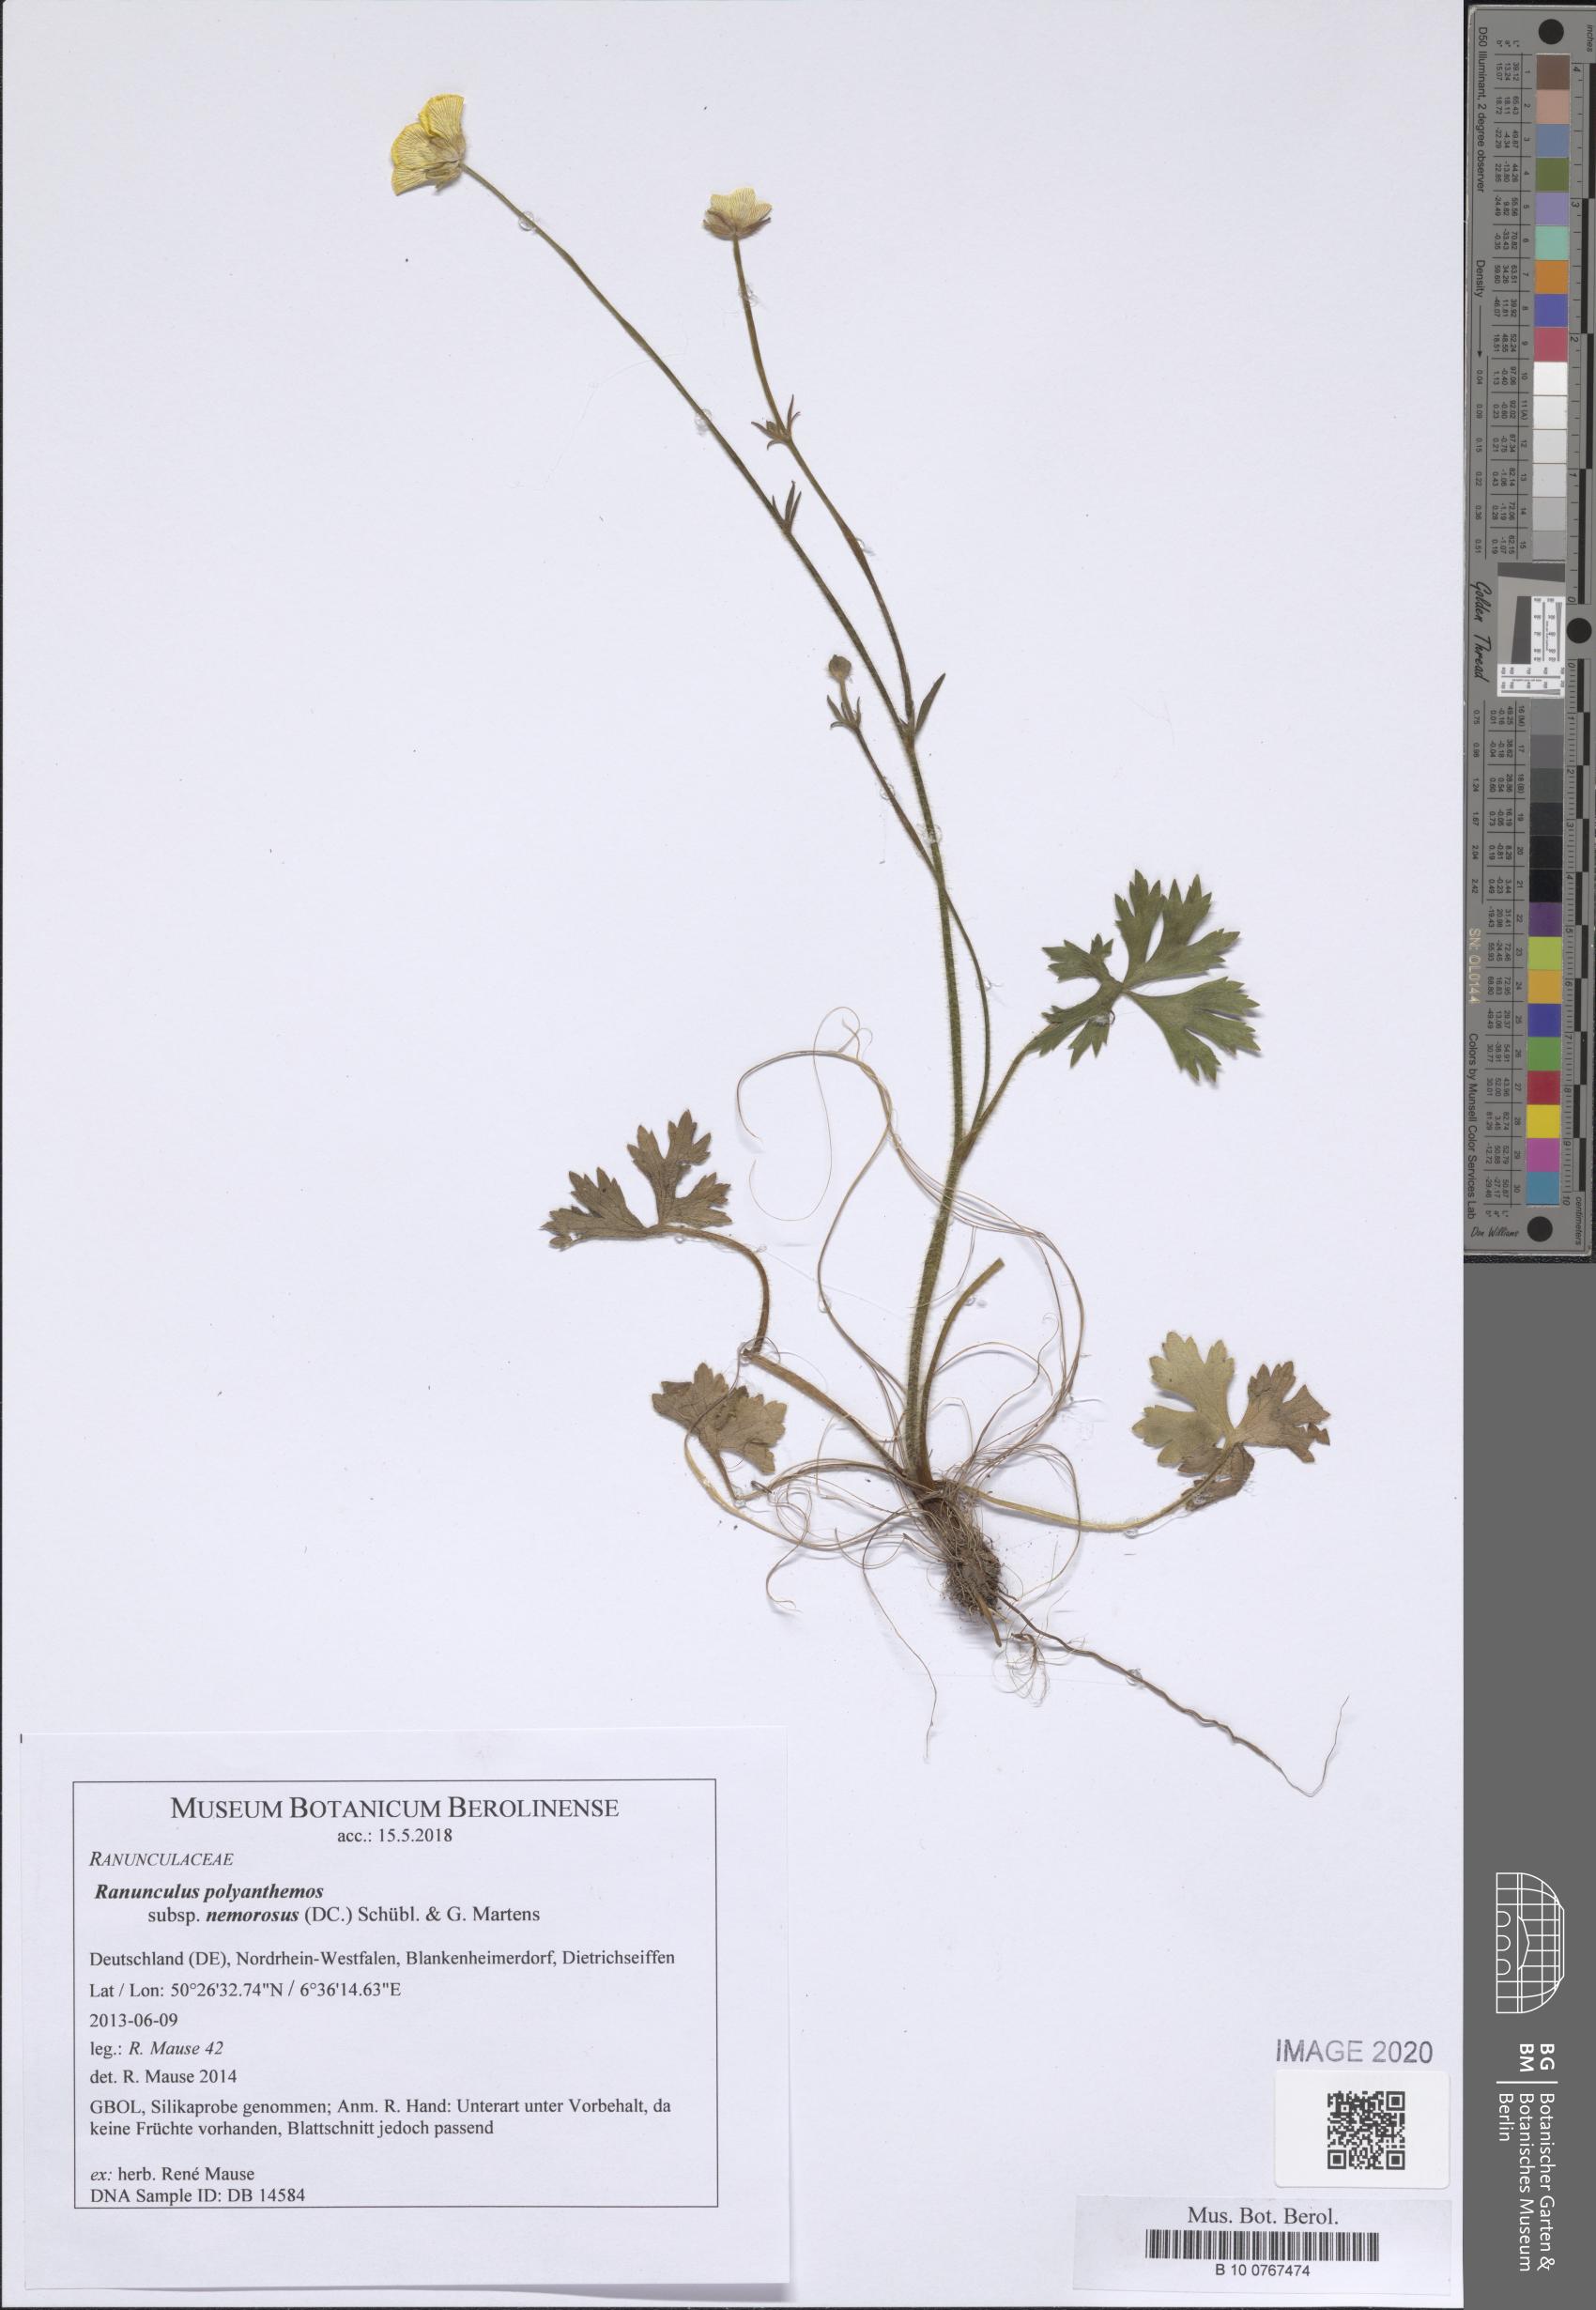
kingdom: Plantae
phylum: Tracheophyta
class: Magnoliopsida
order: Ranunculales
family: Ranunculaceae
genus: Ranunculus
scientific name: Ranunculus polyanthemos
